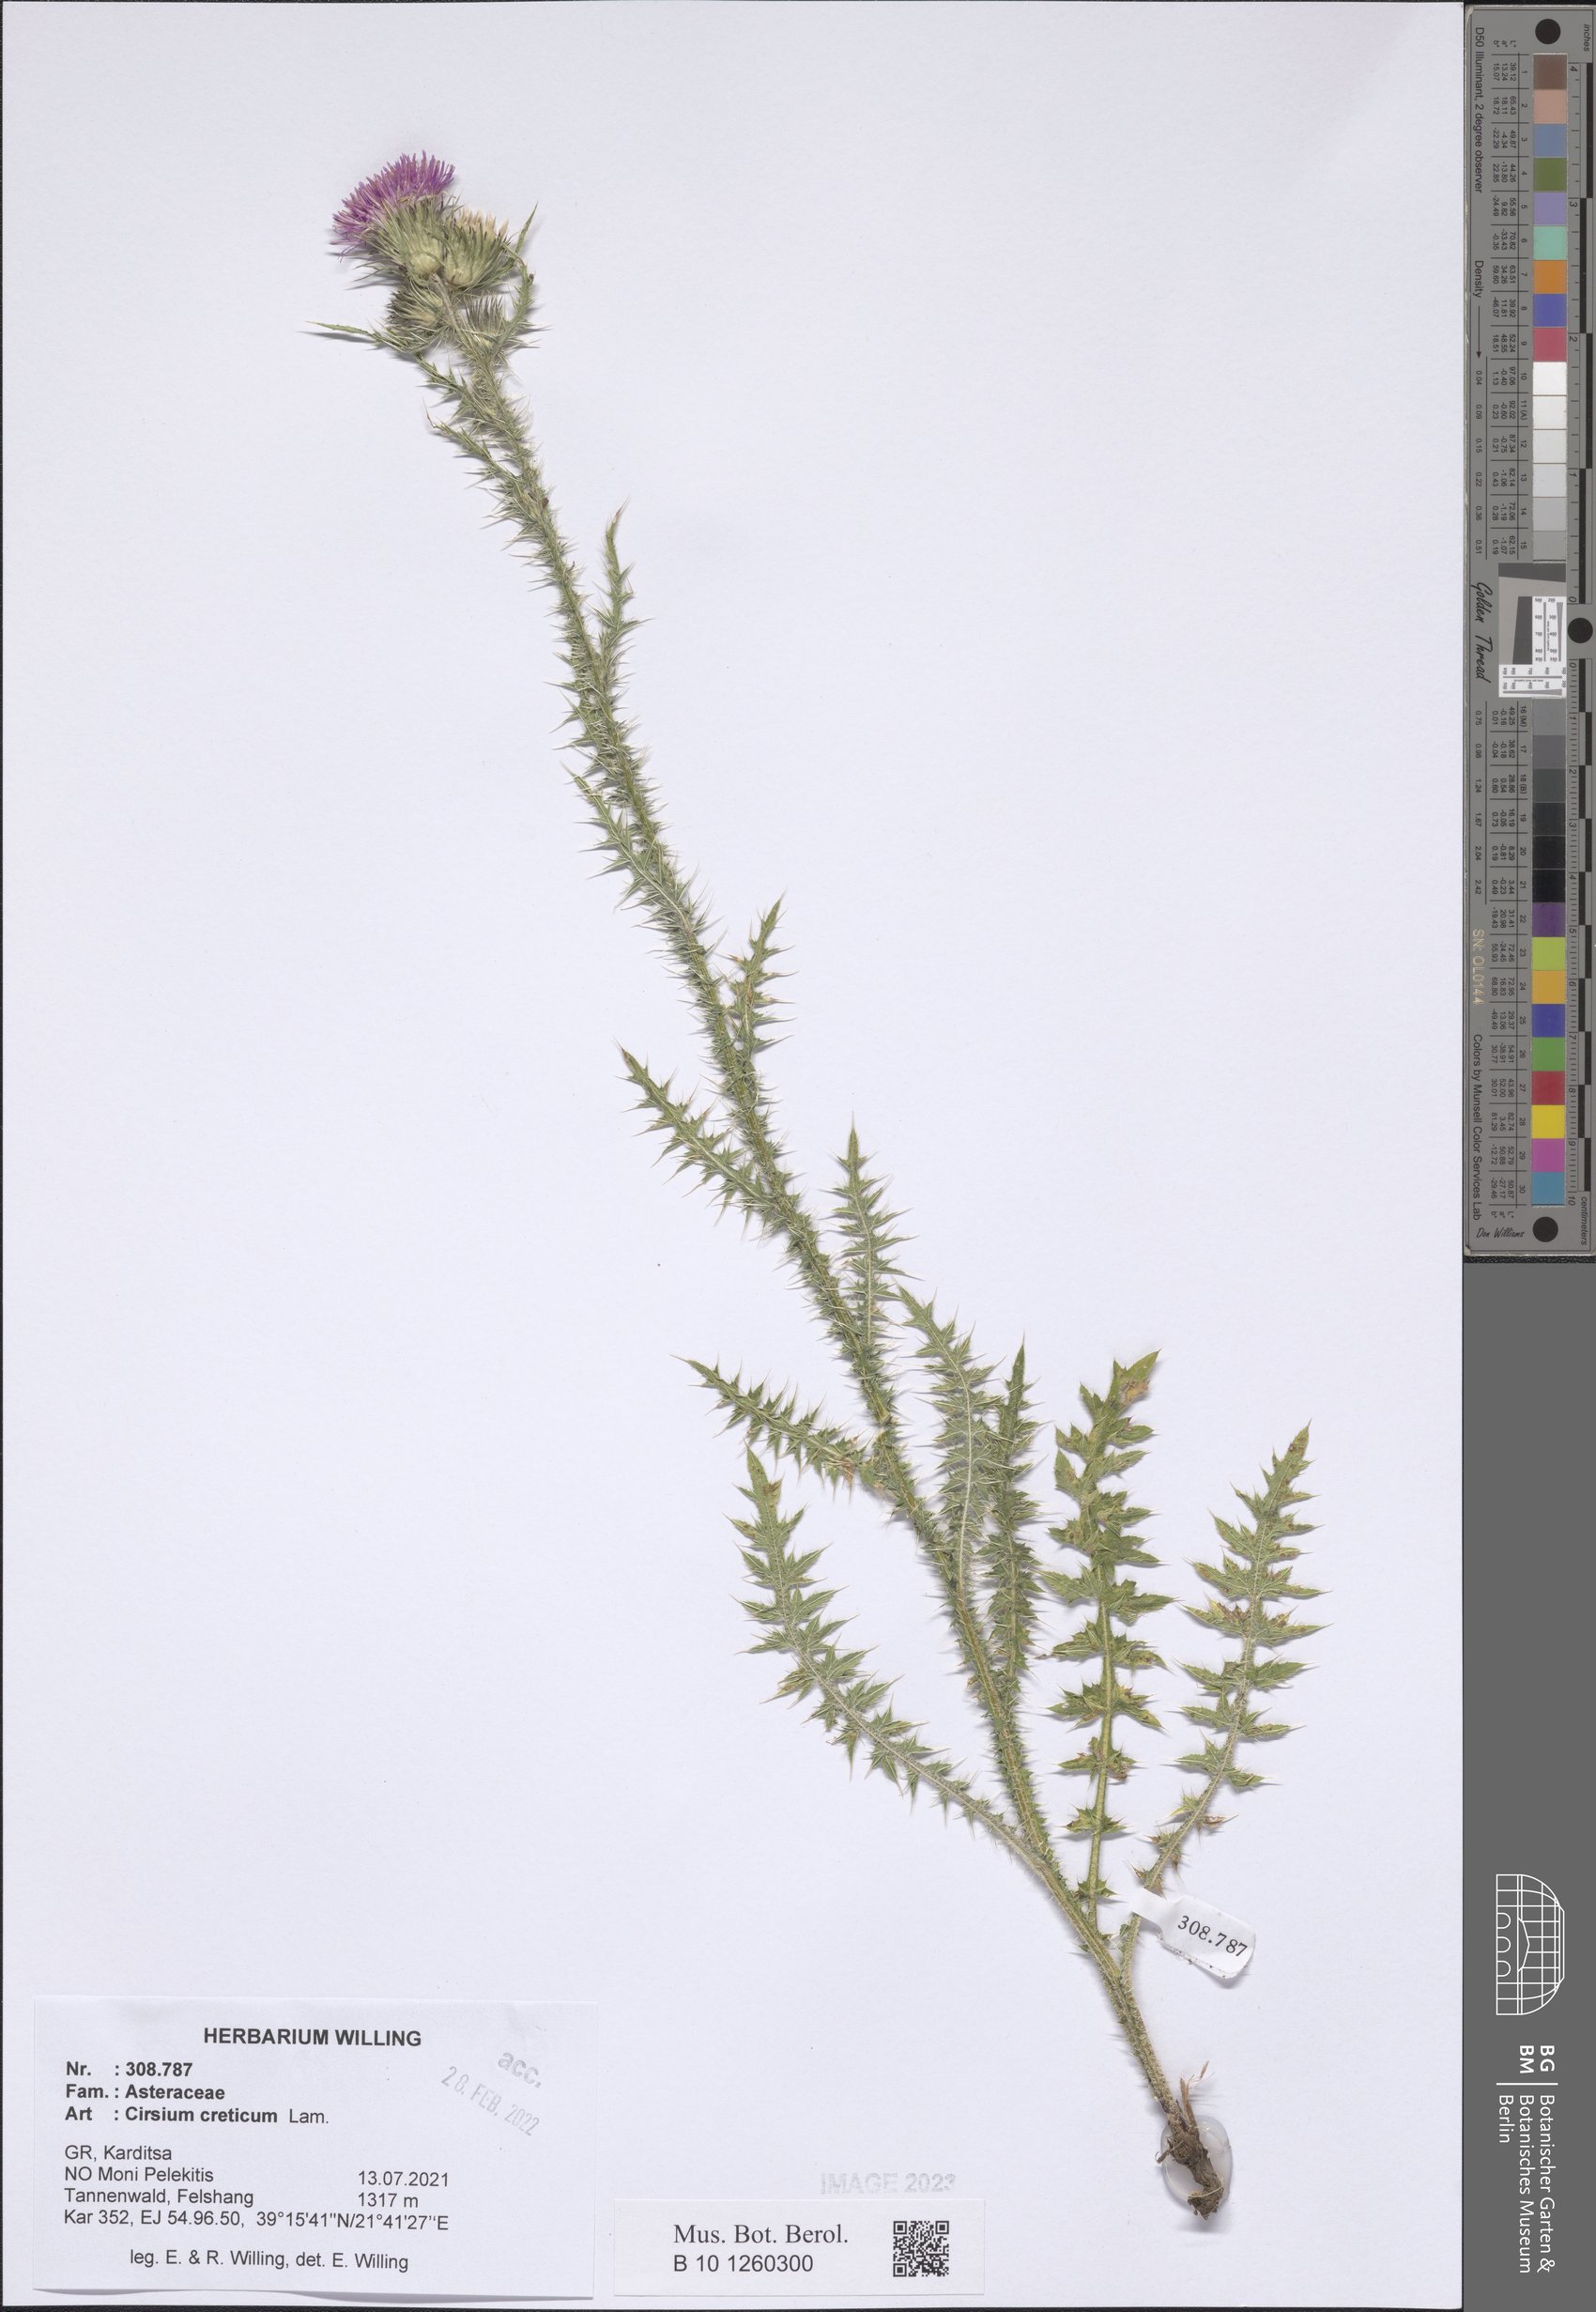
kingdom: Plantae
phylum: Tracheophyta
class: Magnoliopsida
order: Asterales
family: Asteraceae
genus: Cirsium
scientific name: Cirsium creticum
